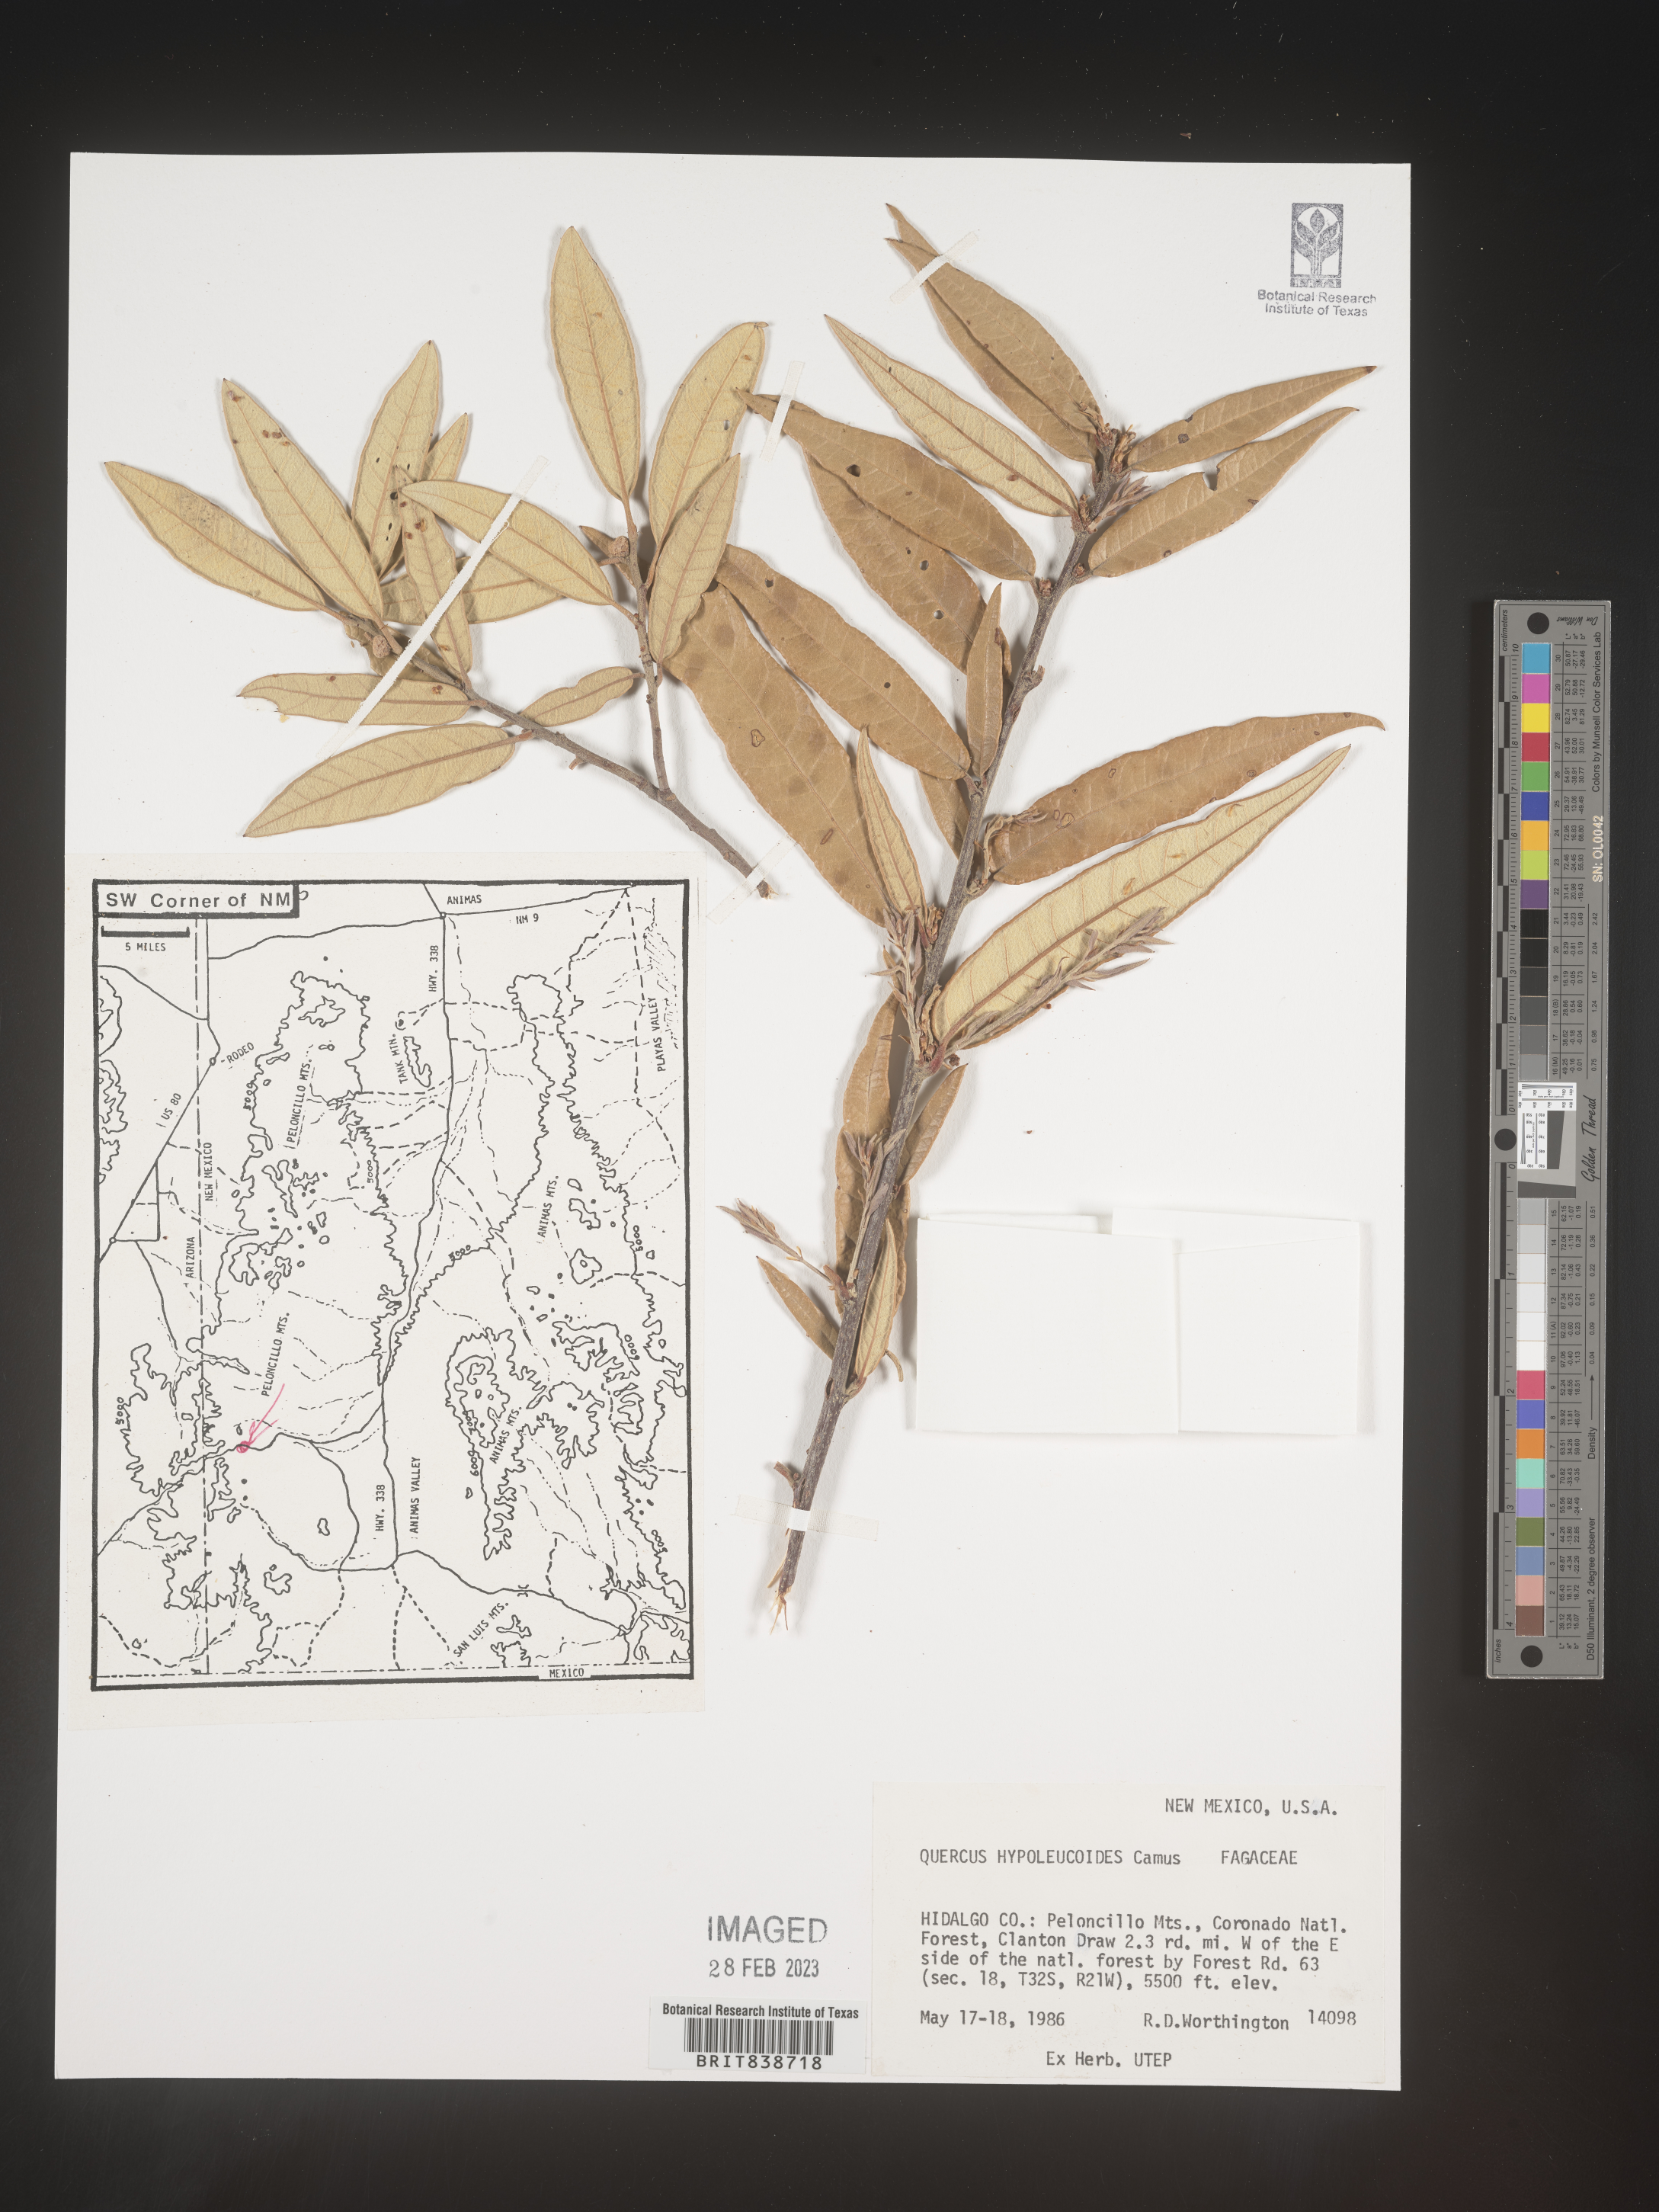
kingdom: Plantae
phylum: Tracheophyta
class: Magnoliopsida
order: Fagales
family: Fagaceae
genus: Quercus
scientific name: Quercus
